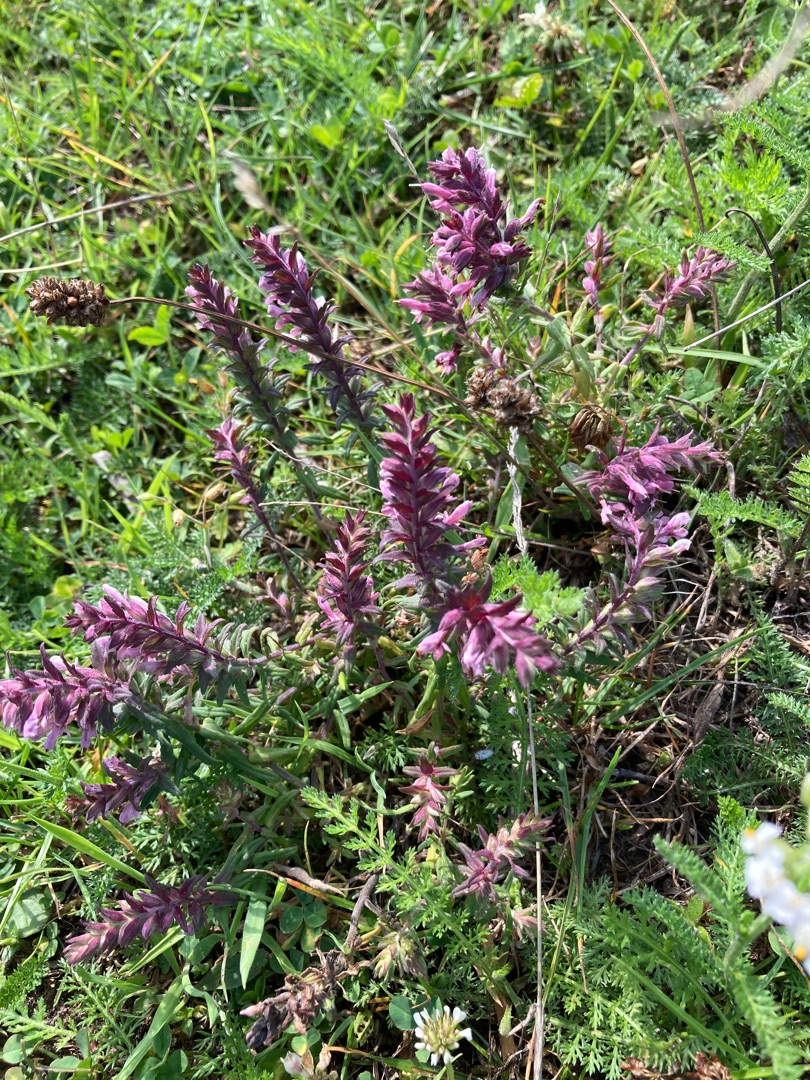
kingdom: Plantae
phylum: Tracheophyta
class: Magnoliopsida
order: Lamiales
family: Orobanchaceae
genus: Odontites
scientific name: Odontites vulgaris
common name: Høst-rødtop
